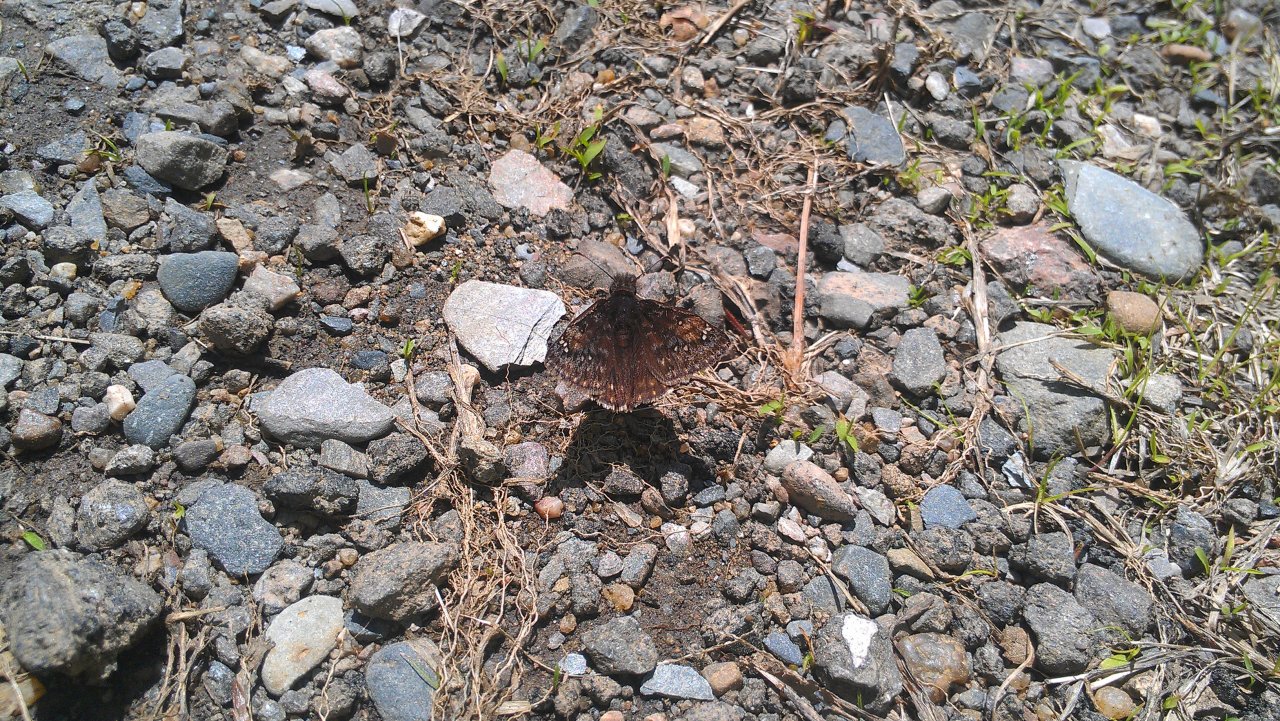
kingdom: Animalia
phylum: Arthropoda
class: Insecta
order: Lepidoptera
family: Hesperiidae
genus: Erynnis
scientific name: Erynnis icelus
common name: Dreamy Duskywing
